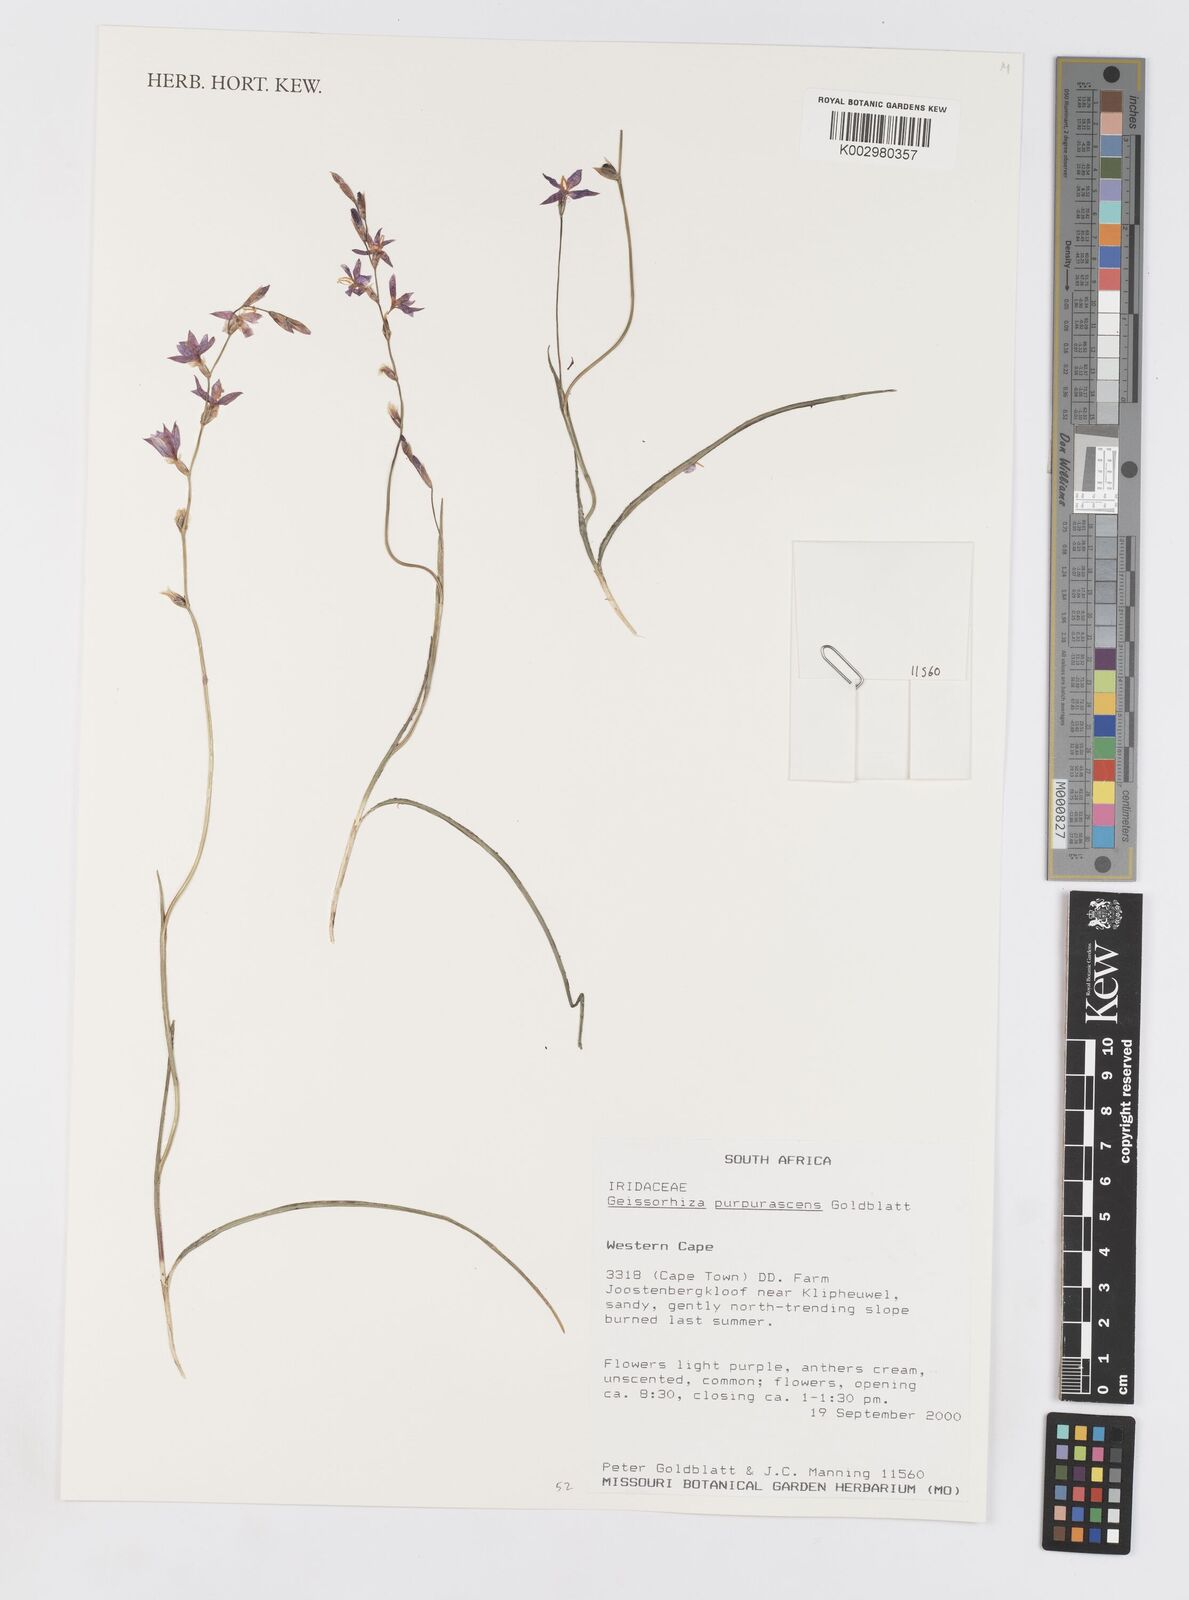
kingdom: Plantae
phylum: Tracheophyta
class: Liliopsida
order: Asparagales
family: Iridaceae
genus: Geissorhiza
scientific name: Geissorhiza purpurascens
